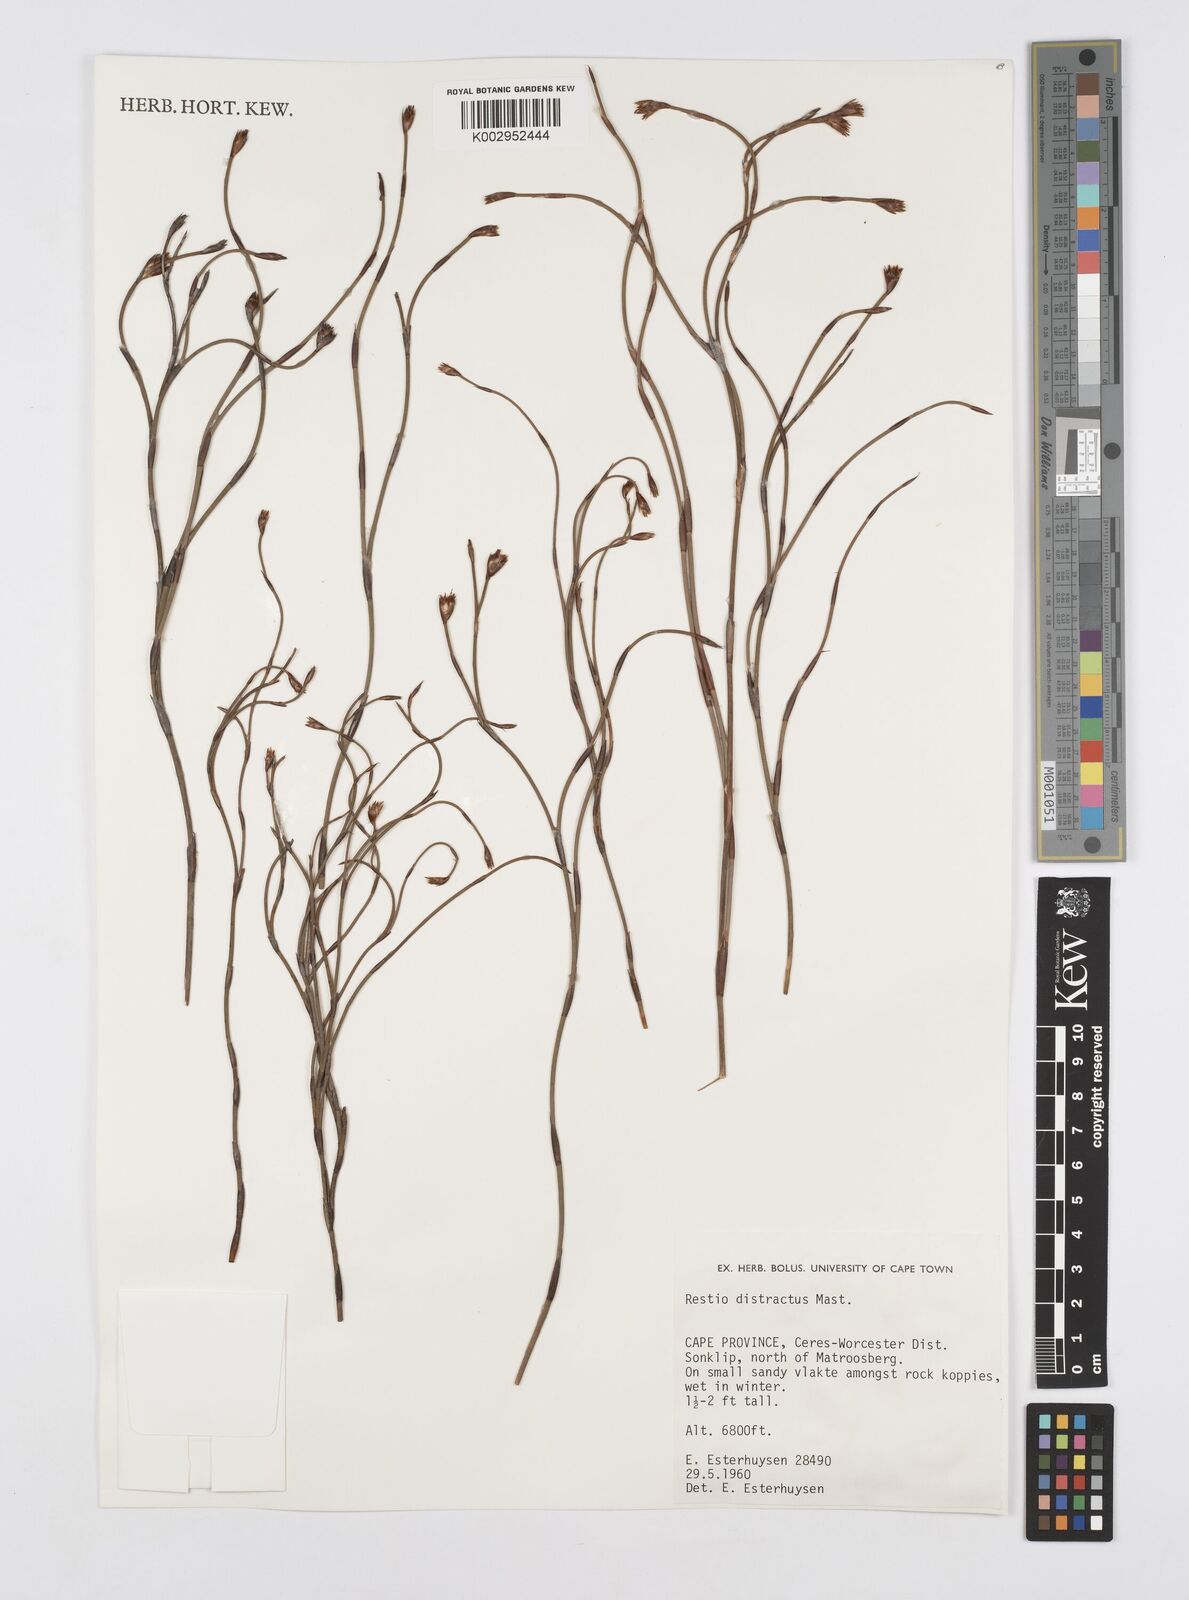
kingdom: Plantae
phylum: Tracheophyta
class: Liliopsida
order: Poales
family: Restionaceae
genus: Restio
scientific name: Restio distractus
